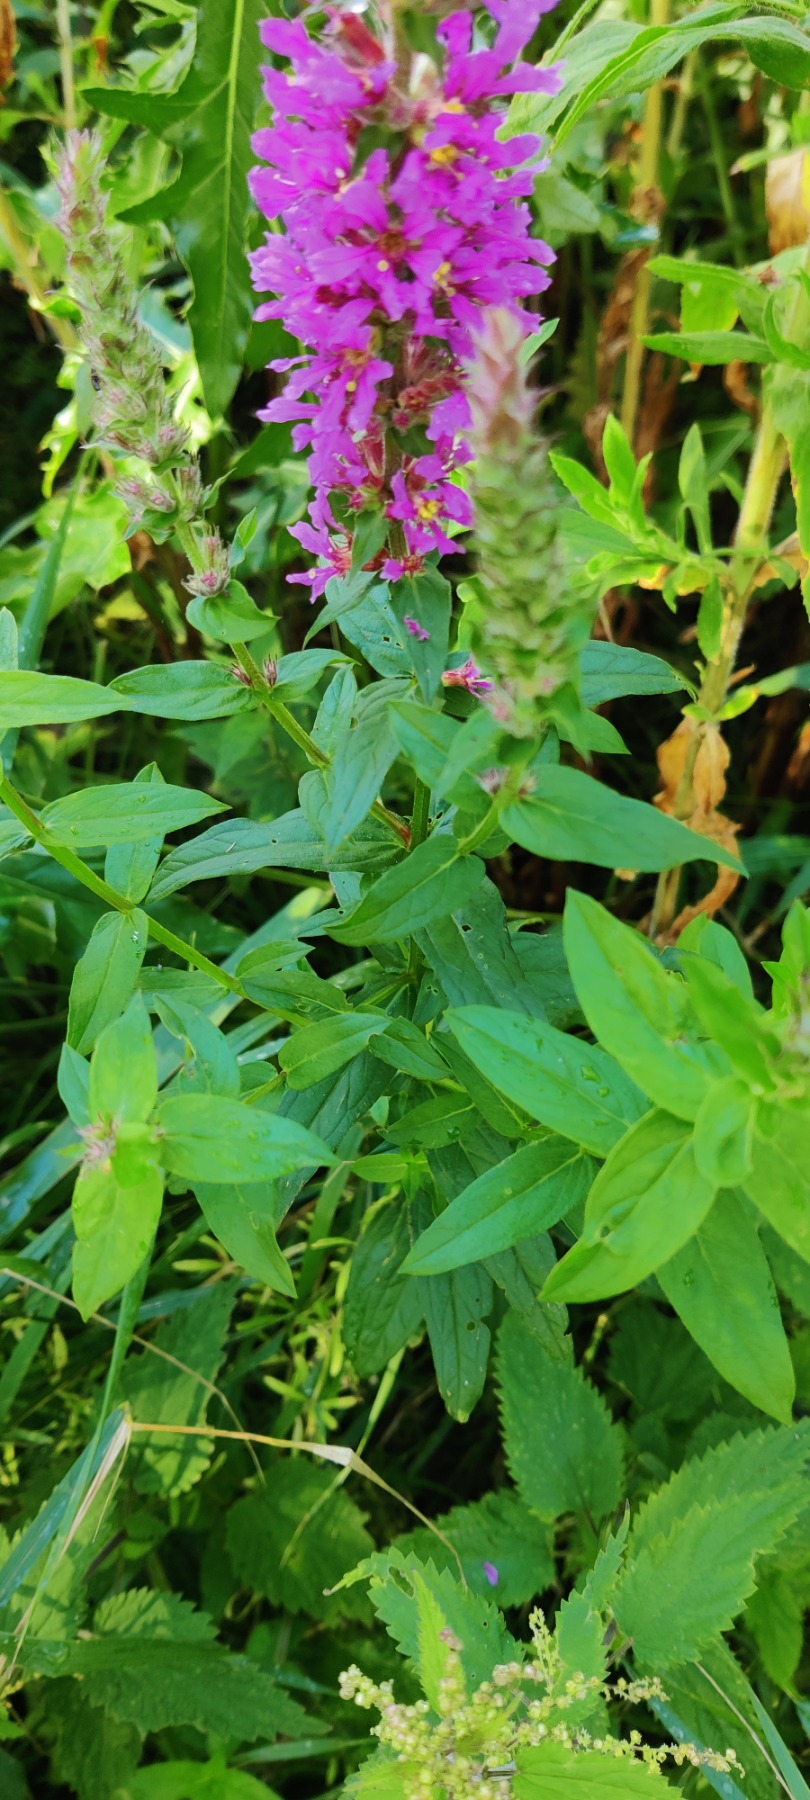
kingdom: Plantae
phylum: Tracheophyta
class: Magnoliopsida
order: Myrtales
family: Lythraceae
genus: Lythrum
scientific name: Lythrum salicaria
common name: Kattehale
